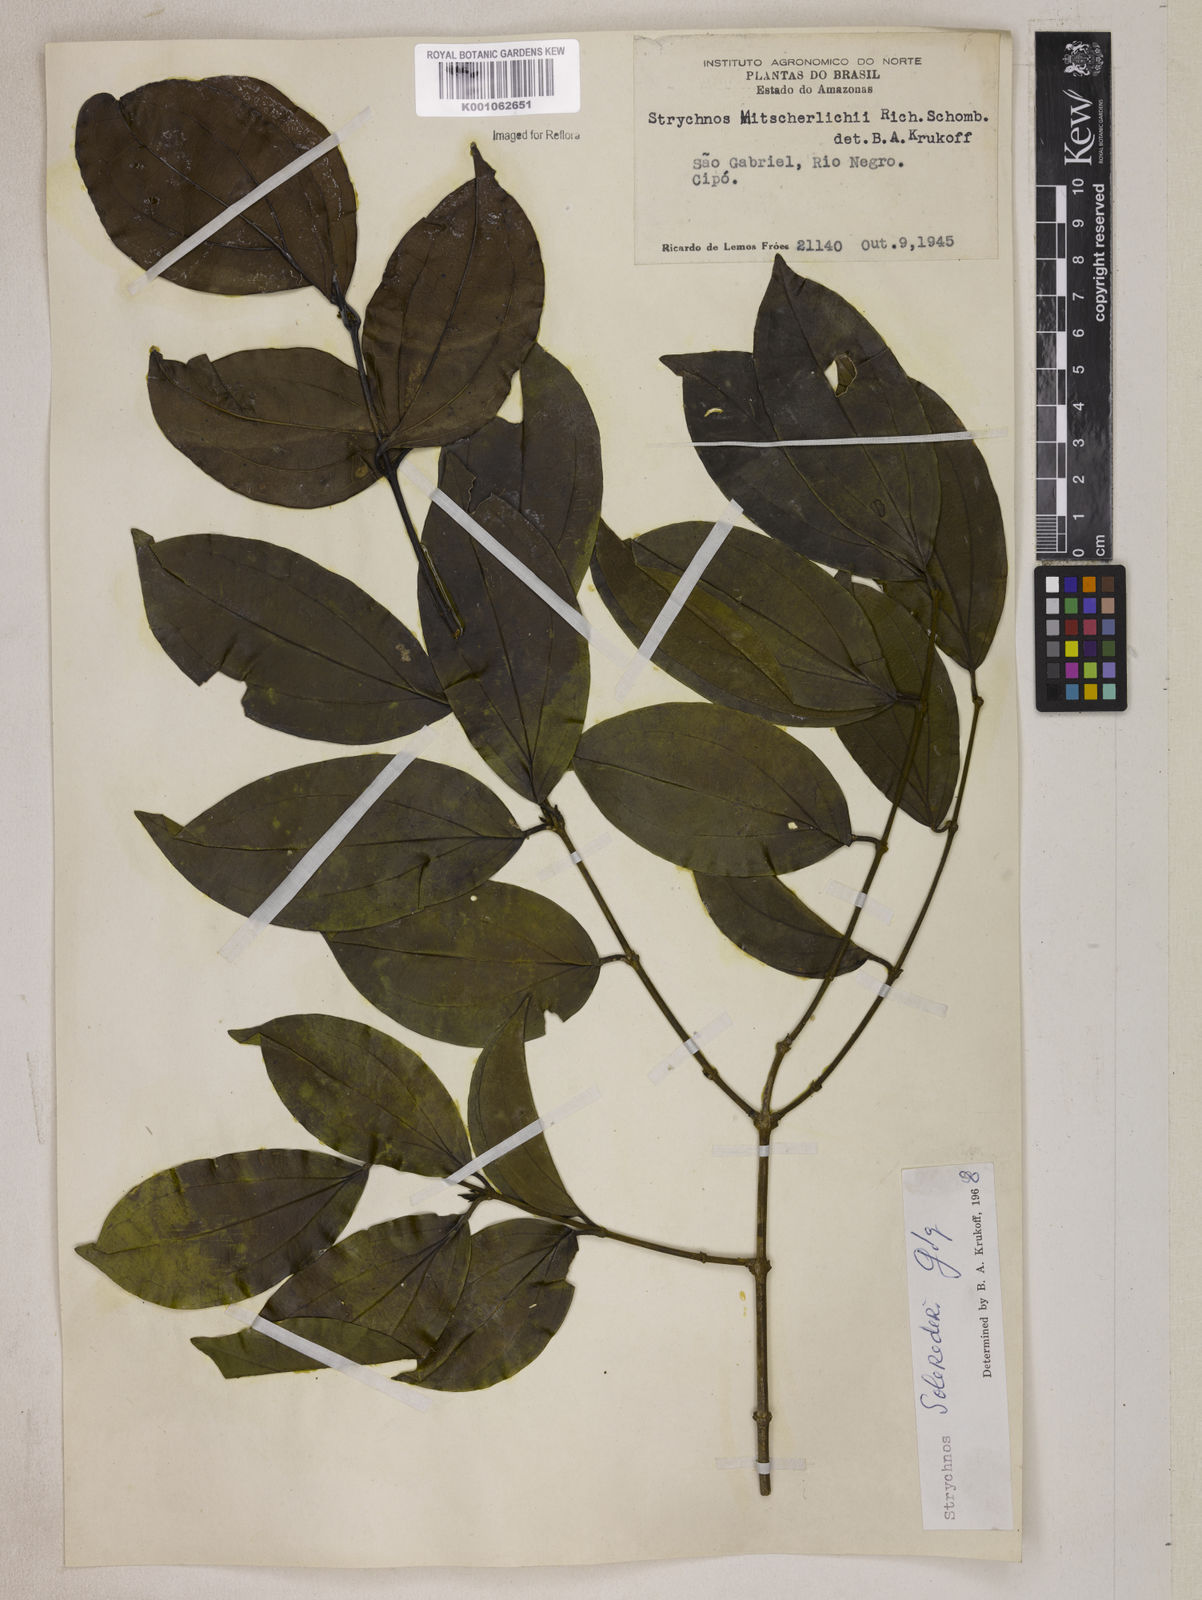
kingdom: Plantae
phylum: Tracheophyta
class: Magnoliopsida
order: Gentianales
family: Loganiaceae
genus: Strychnos
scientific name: Strychnos solerederi
